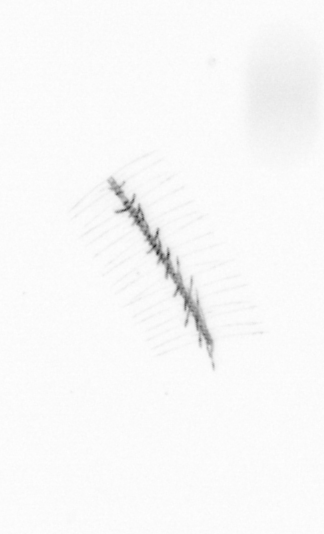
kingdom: Chromista
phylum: Ochrophyta
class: Bacillariophyceae
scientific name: Bacillariophyceae
